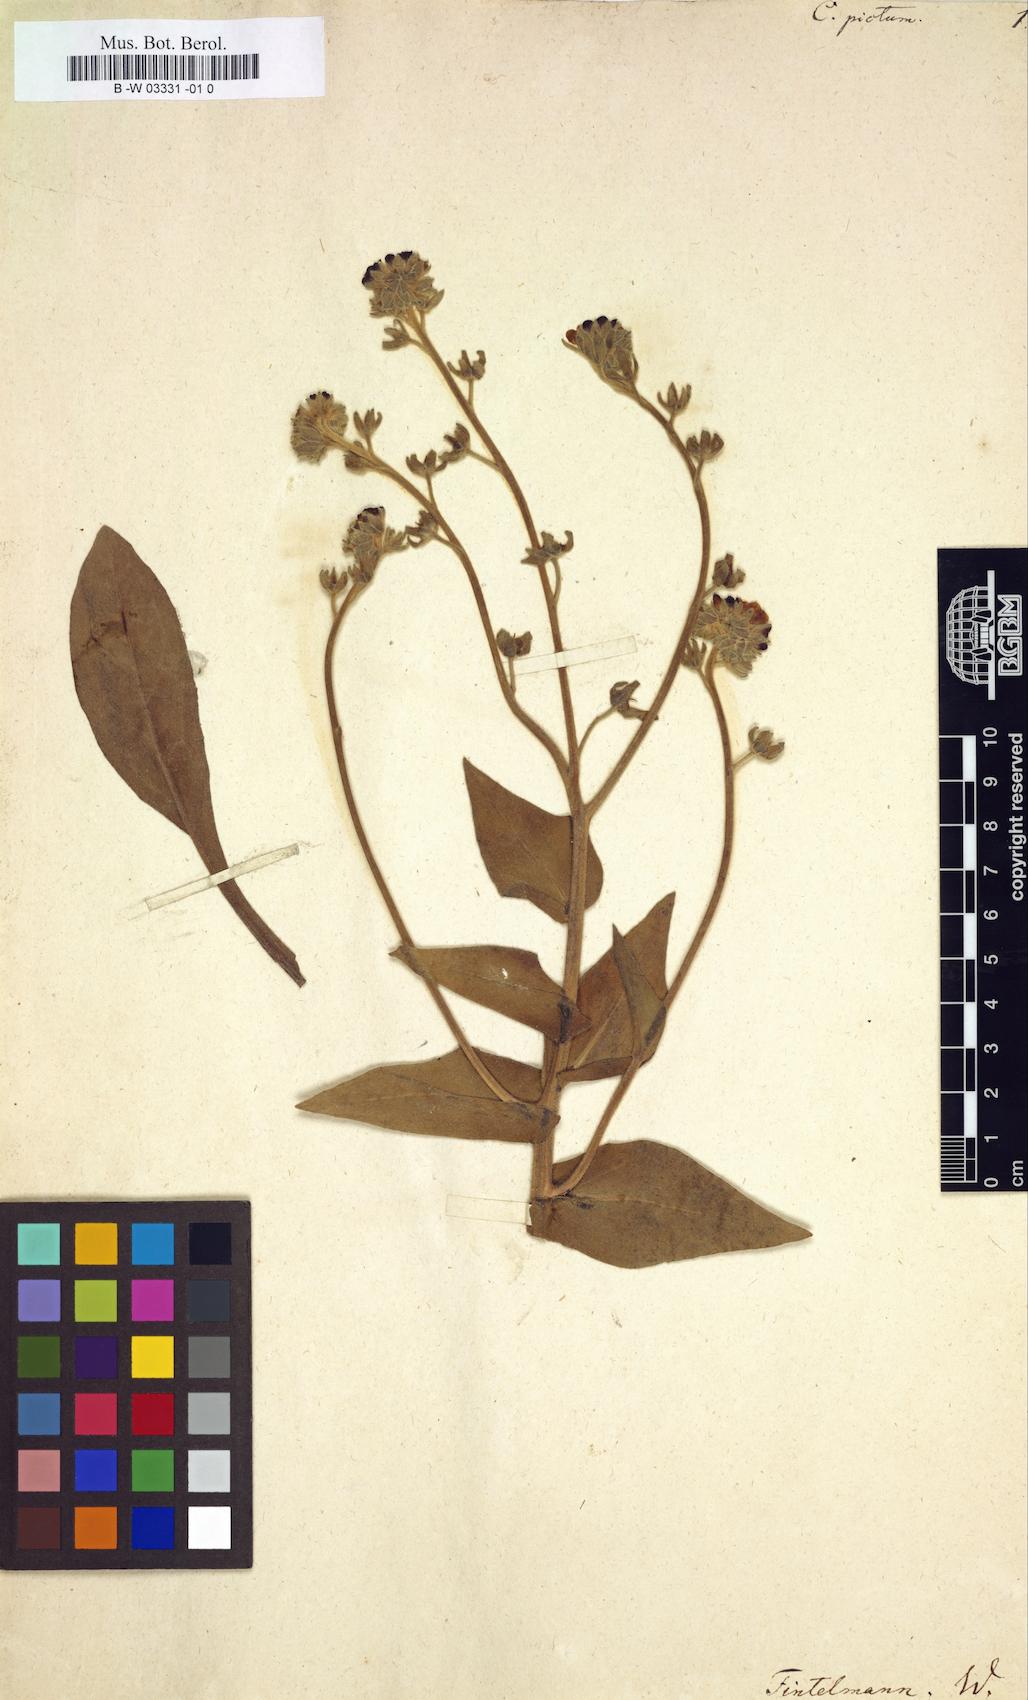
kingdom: Plantae
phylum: Tracheophyta
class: Magnoliopsida
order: Boraginales
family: Boraginaceae
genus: Cynoglossum
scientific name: Cynoglossum creticum
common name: Blue hound's tongue
